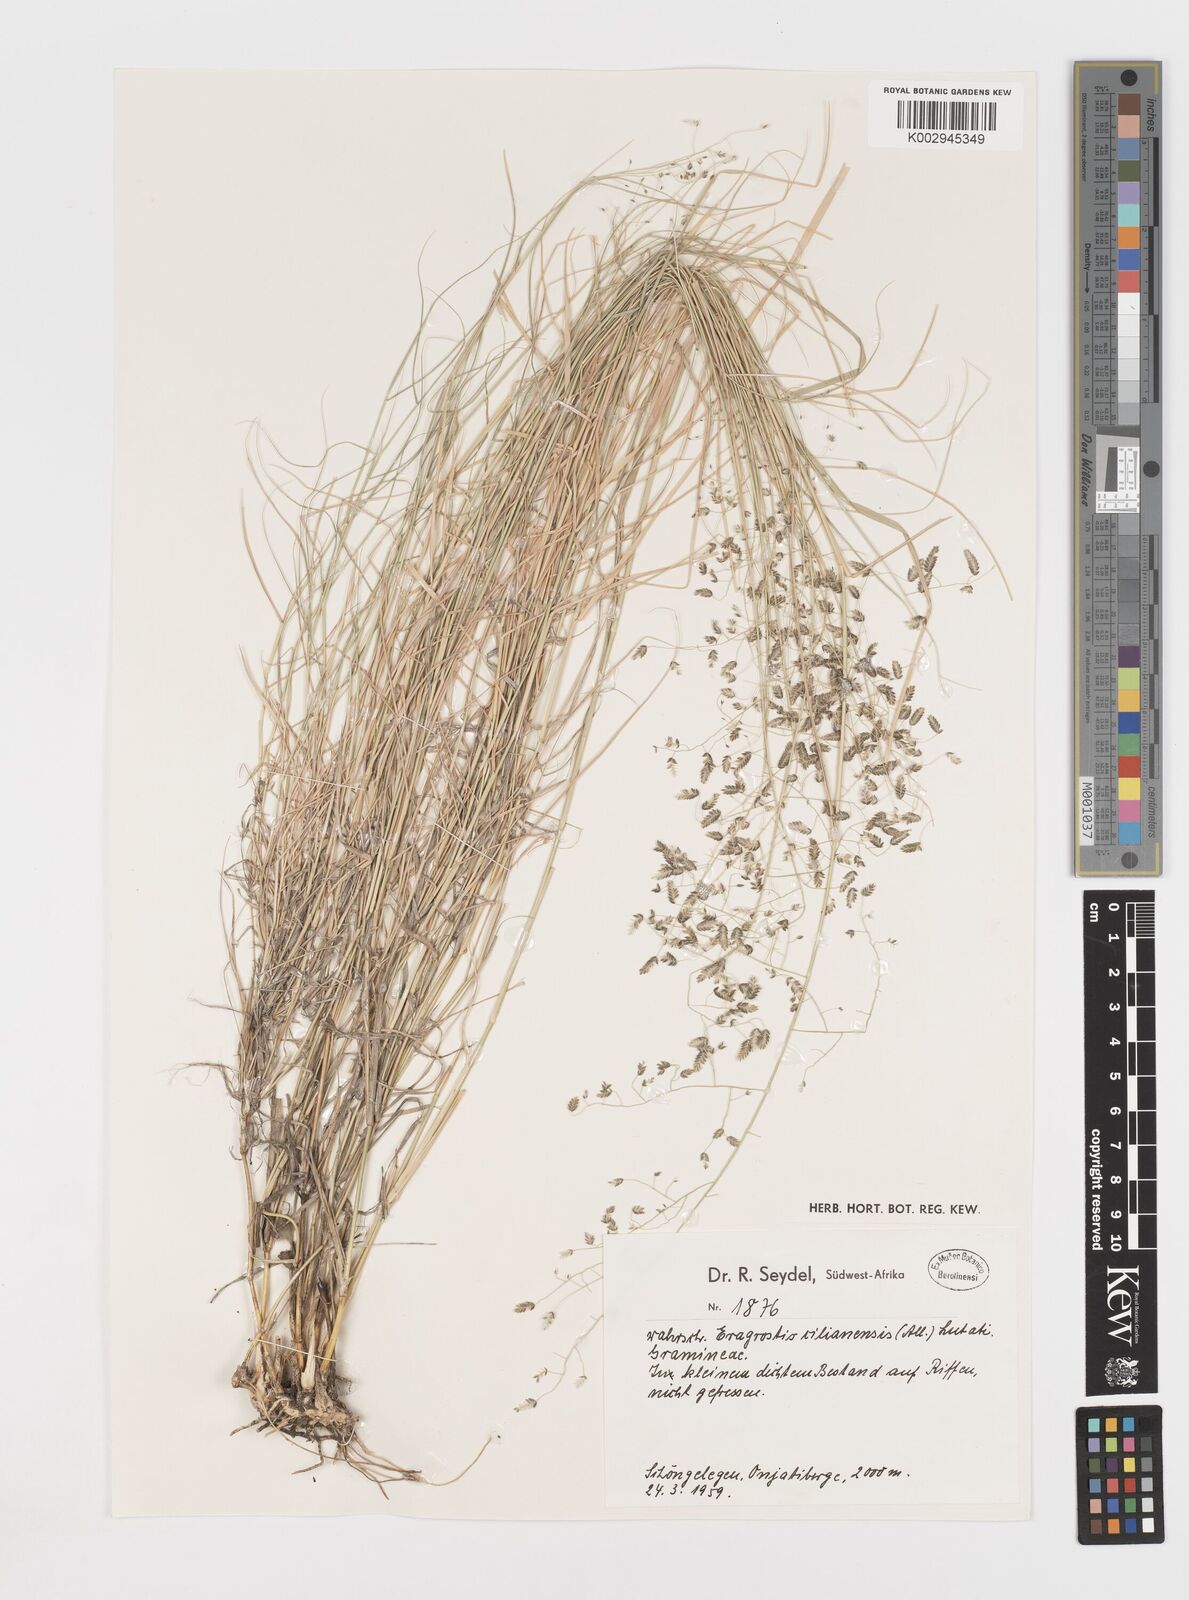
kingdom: Plantae
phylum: Tracheophyta
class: Liliopsida
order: Poales
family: Poaceae
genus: Eragrostis
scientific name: Eragrostis cilianensis
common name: Stinkgrass
